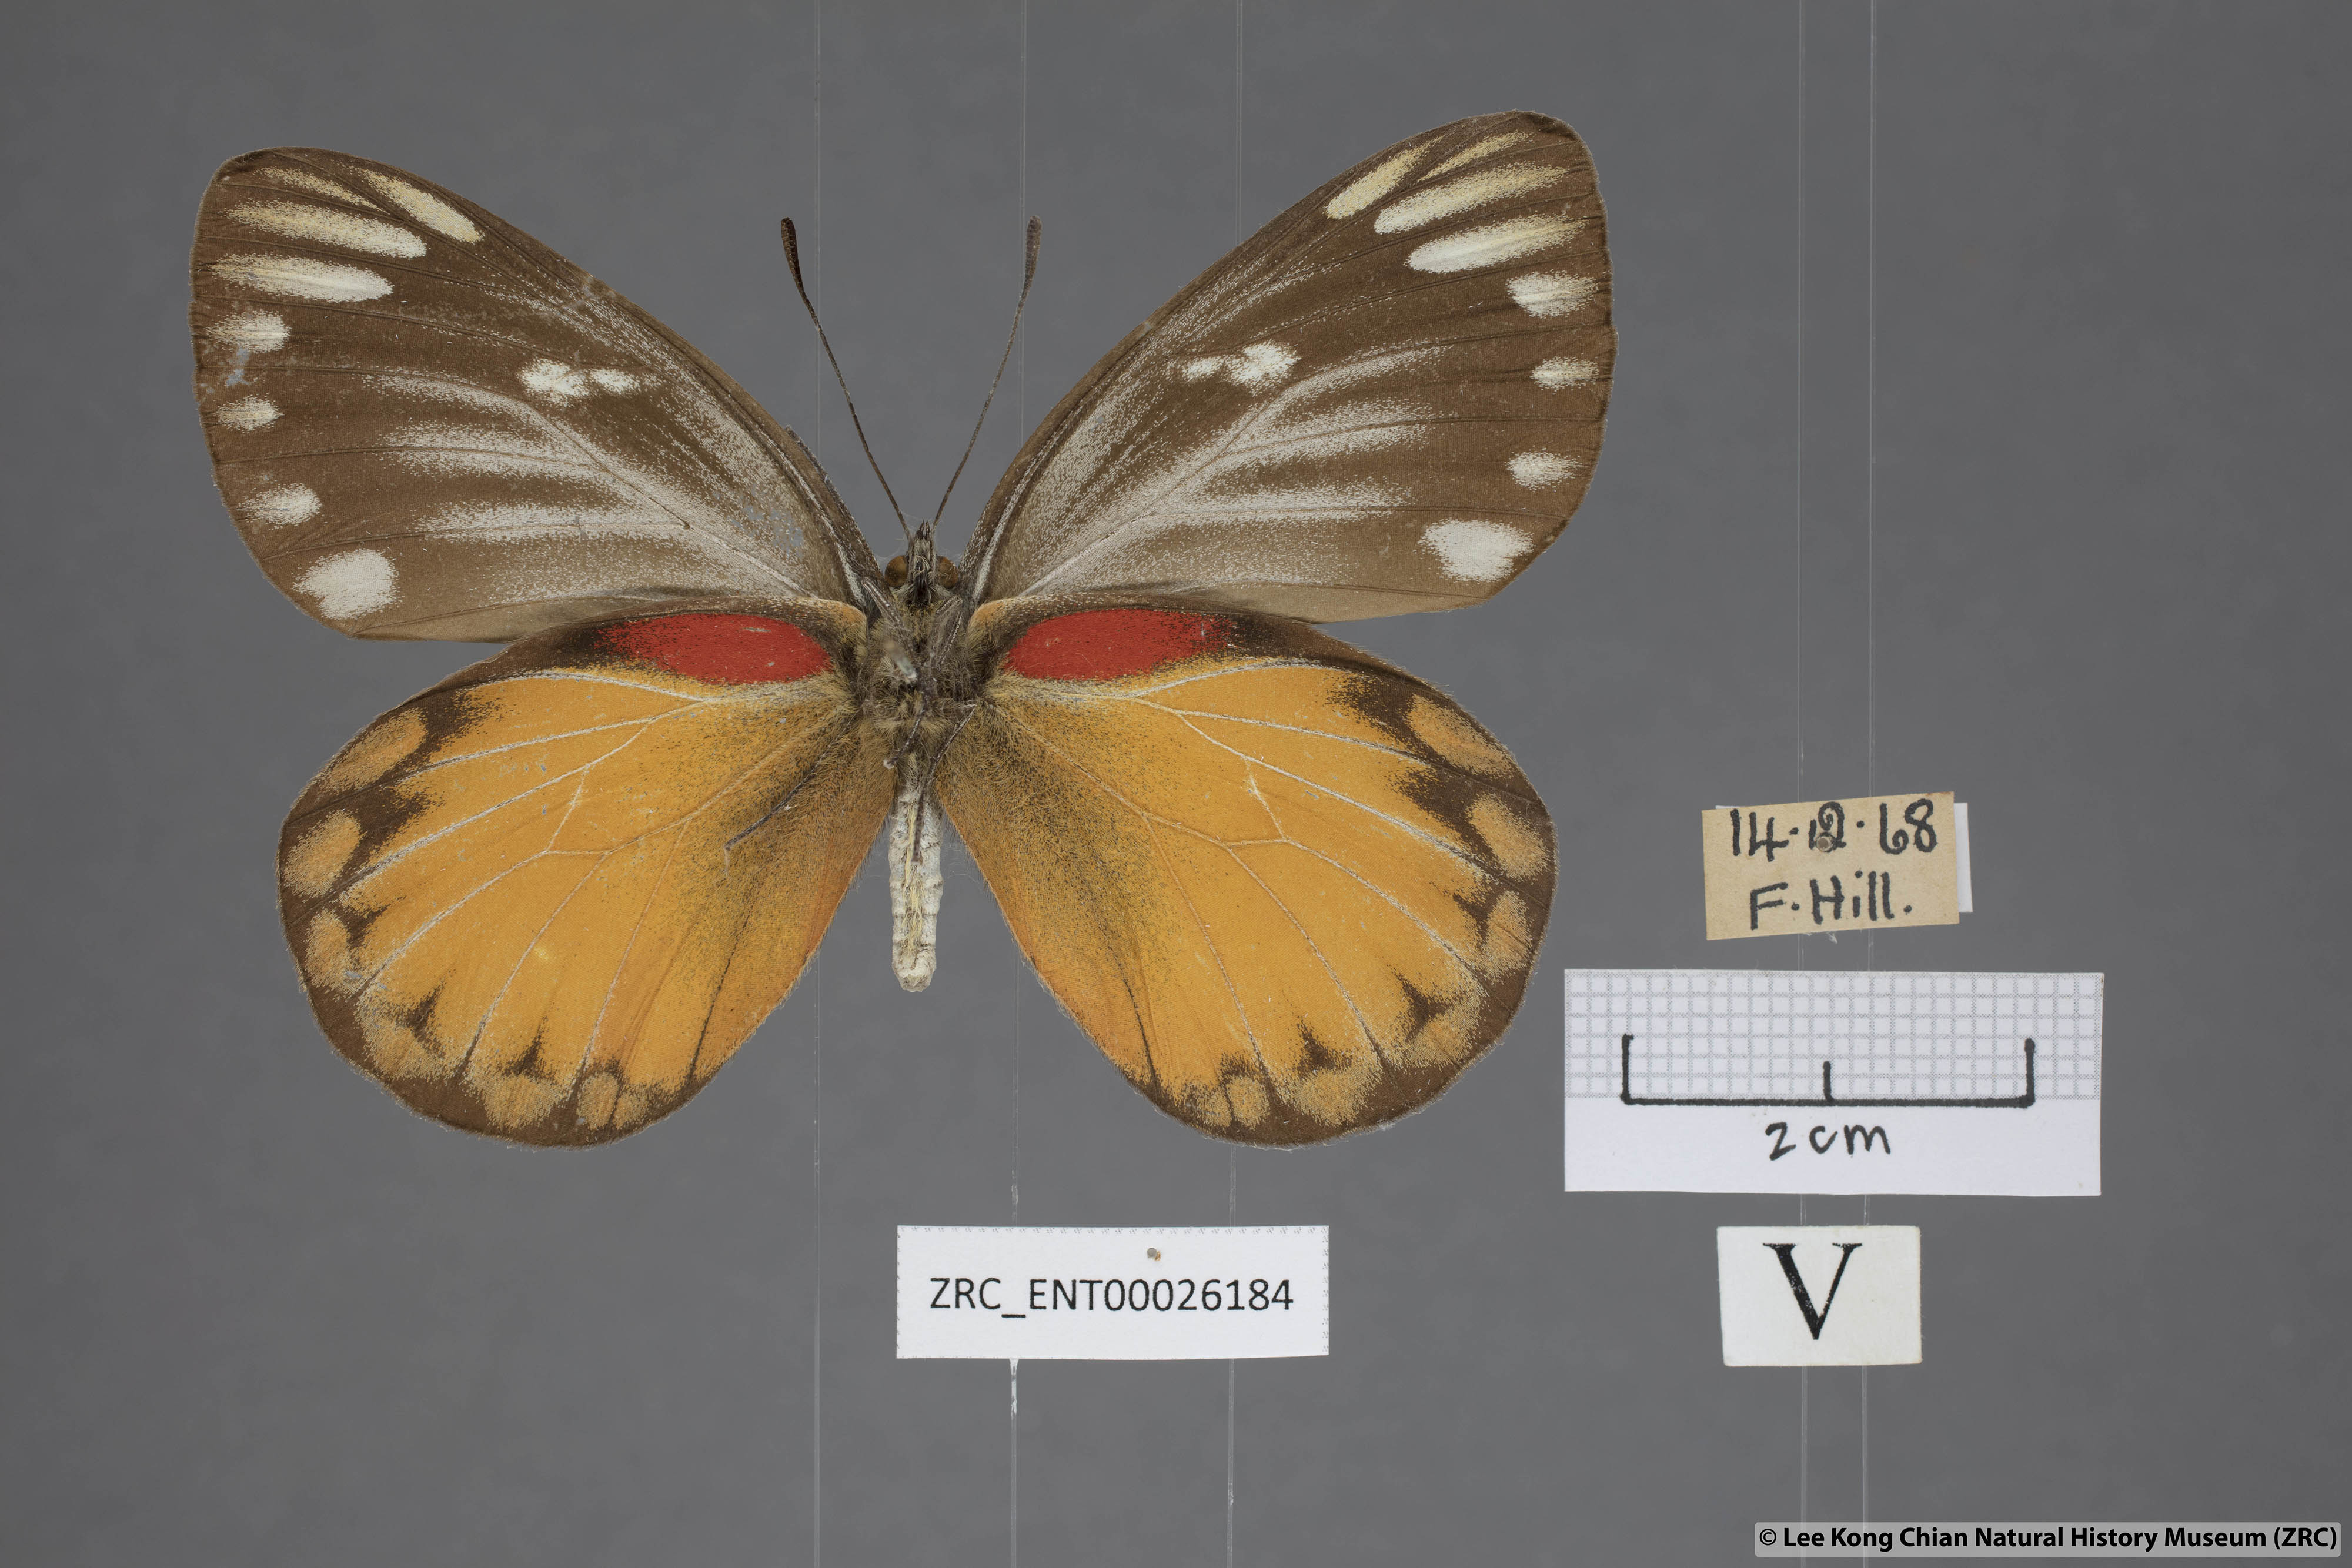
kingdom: Animalia
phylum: Arthropoda
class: Insecta
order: Lepidoptera
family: Pieridae
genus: Delias
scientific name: Delias descombesi
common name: Red-spot jezebel
